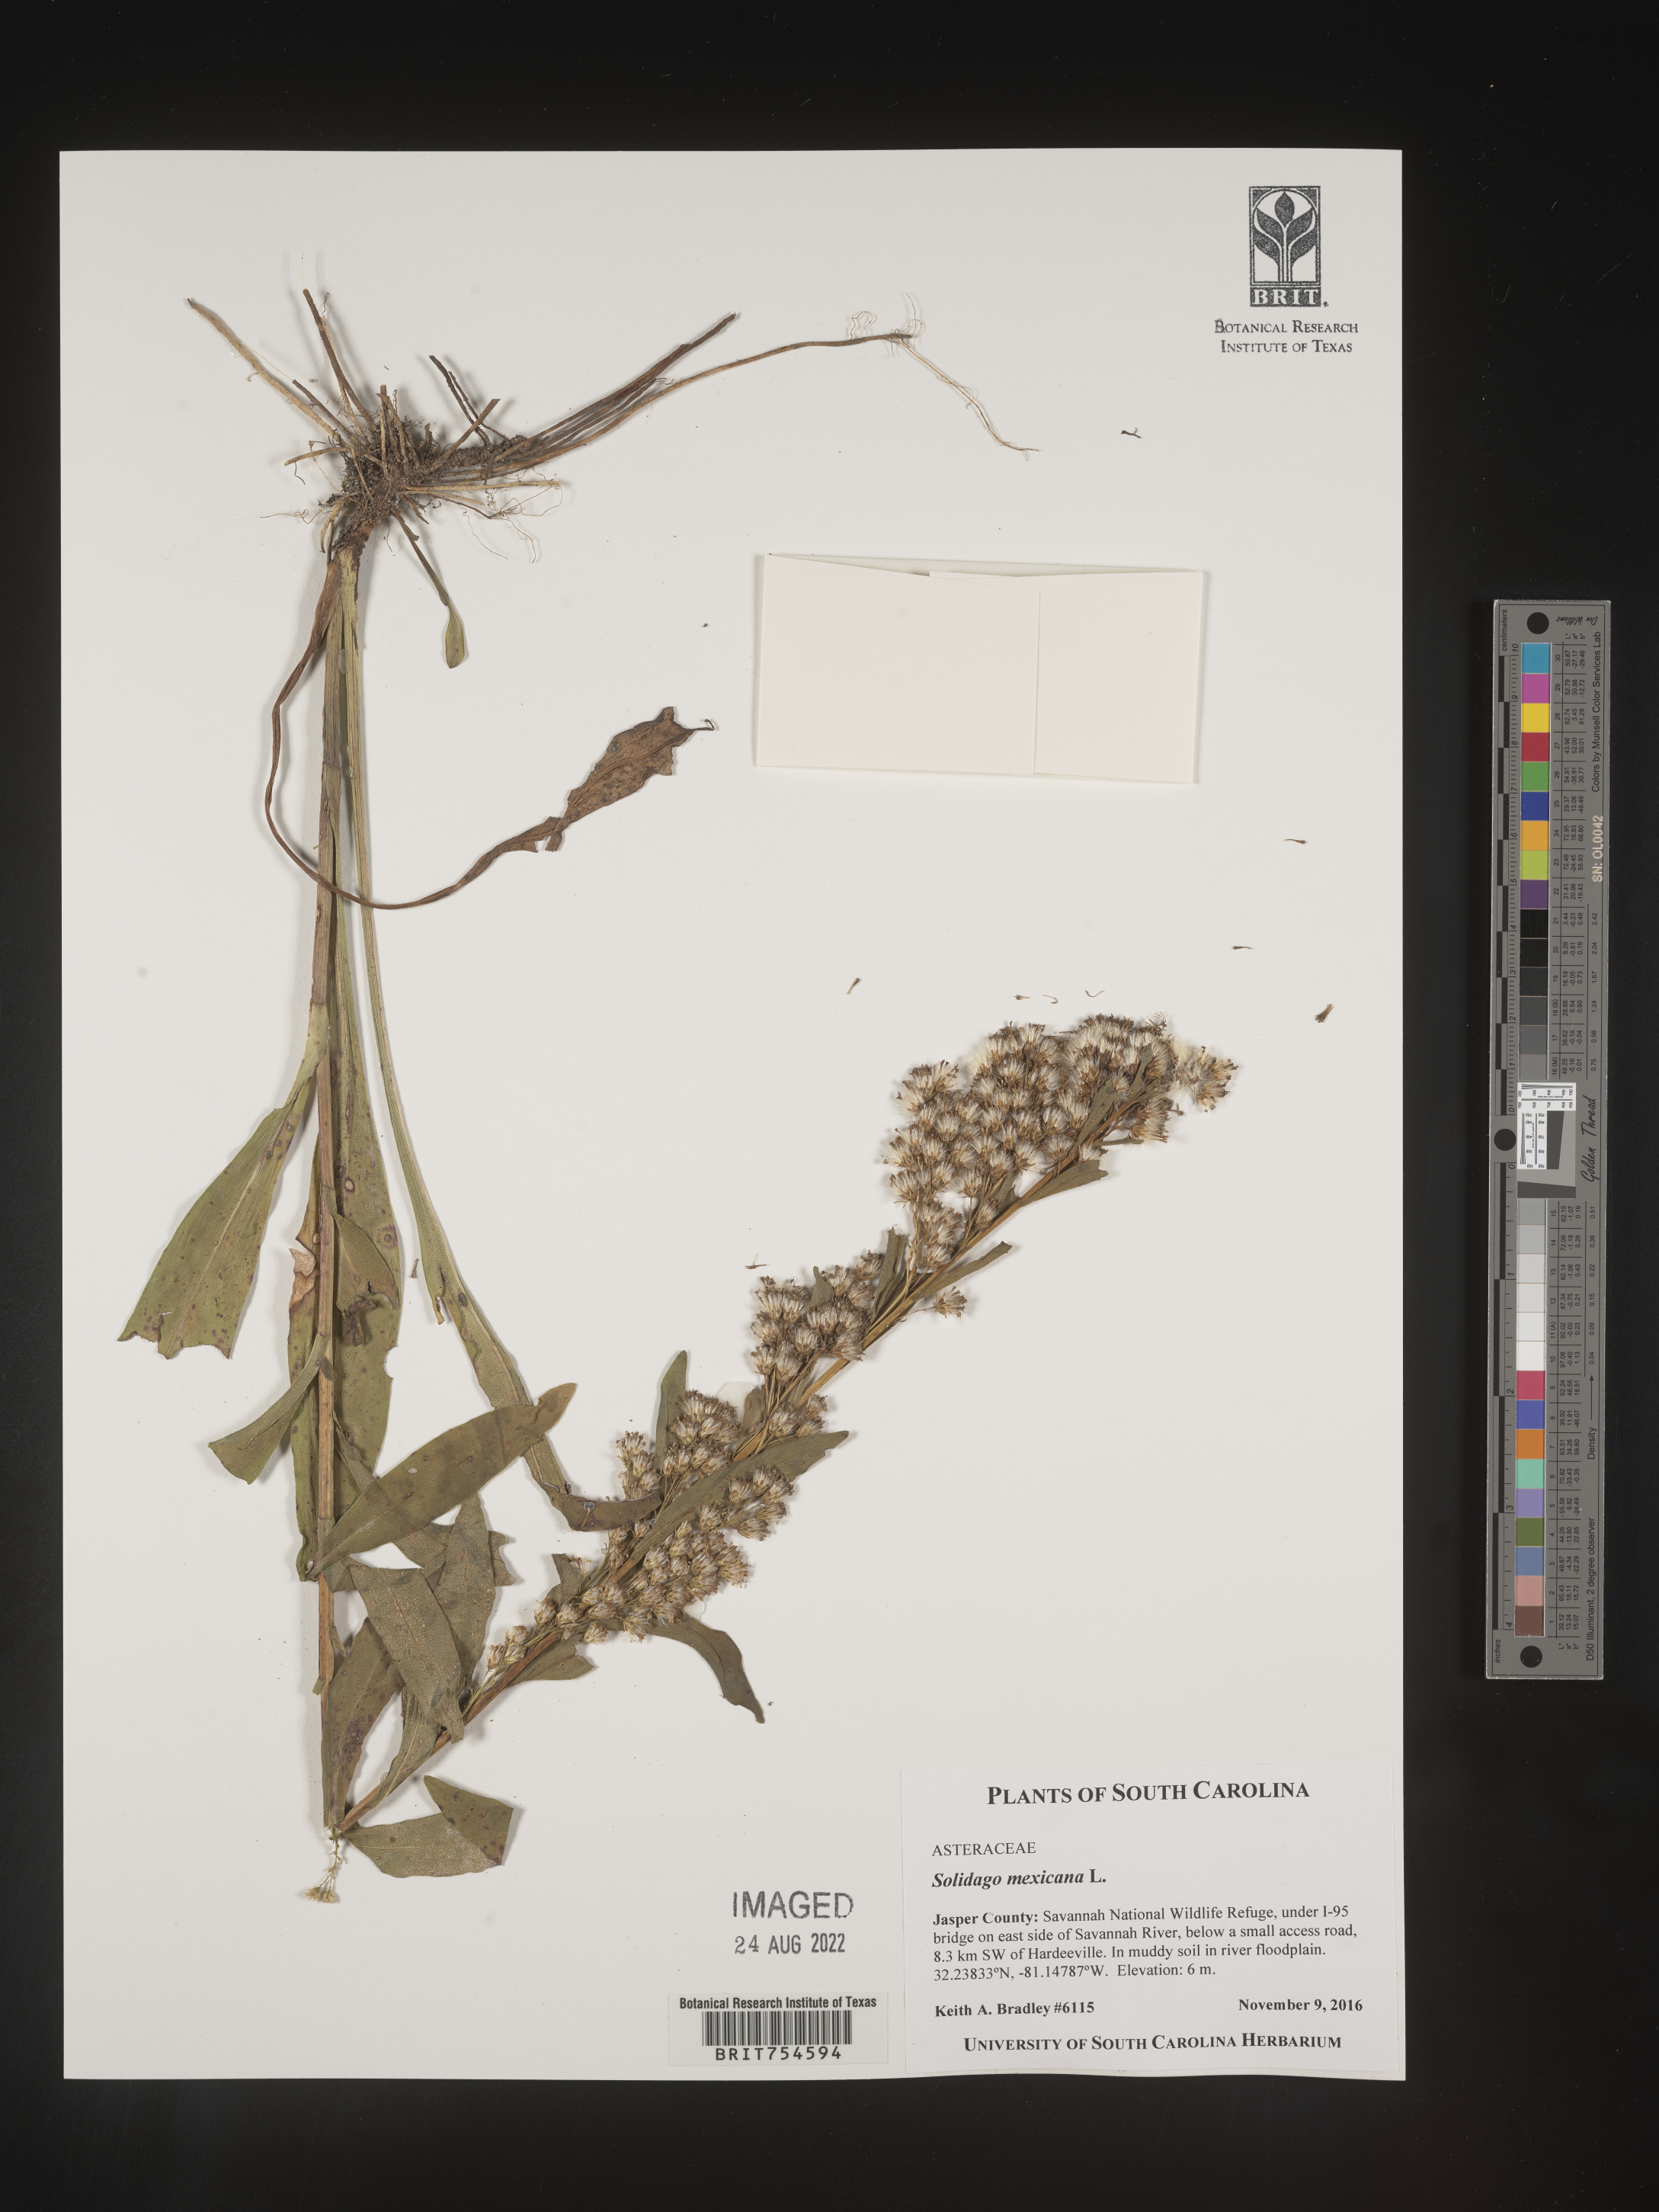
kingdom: Plantae
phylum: Tracheophyta
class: Magnoliopsida
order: Asterales
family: Asteraceae
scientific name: Asteraceae
